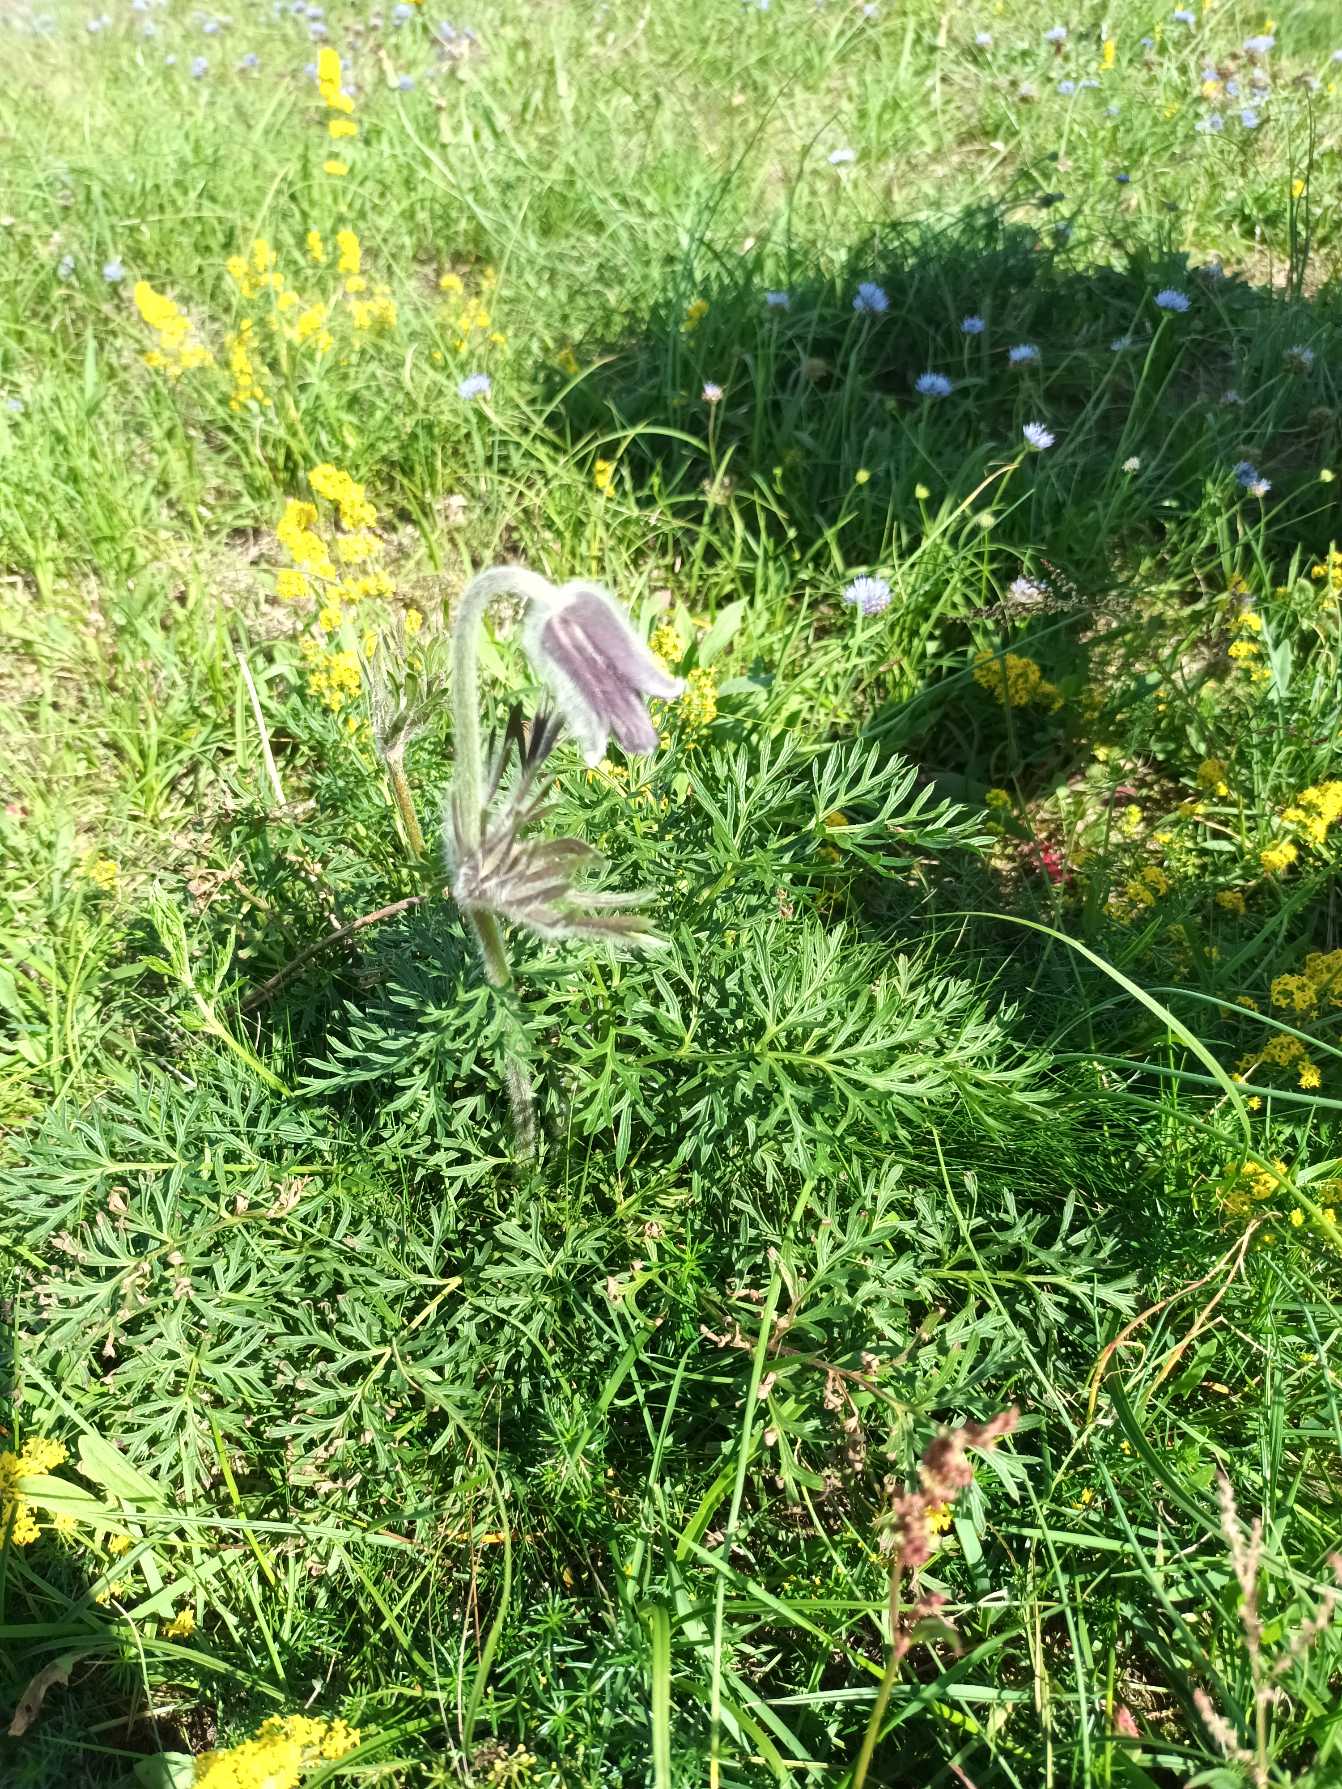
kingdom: Plantae
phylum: Tracheophyta
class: Magnoliopsida
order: Ranunculales
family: Ranunculaceae
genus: Pulsatilla
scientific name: Pulsatilla pratensis
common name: Nikkende kobjælde
